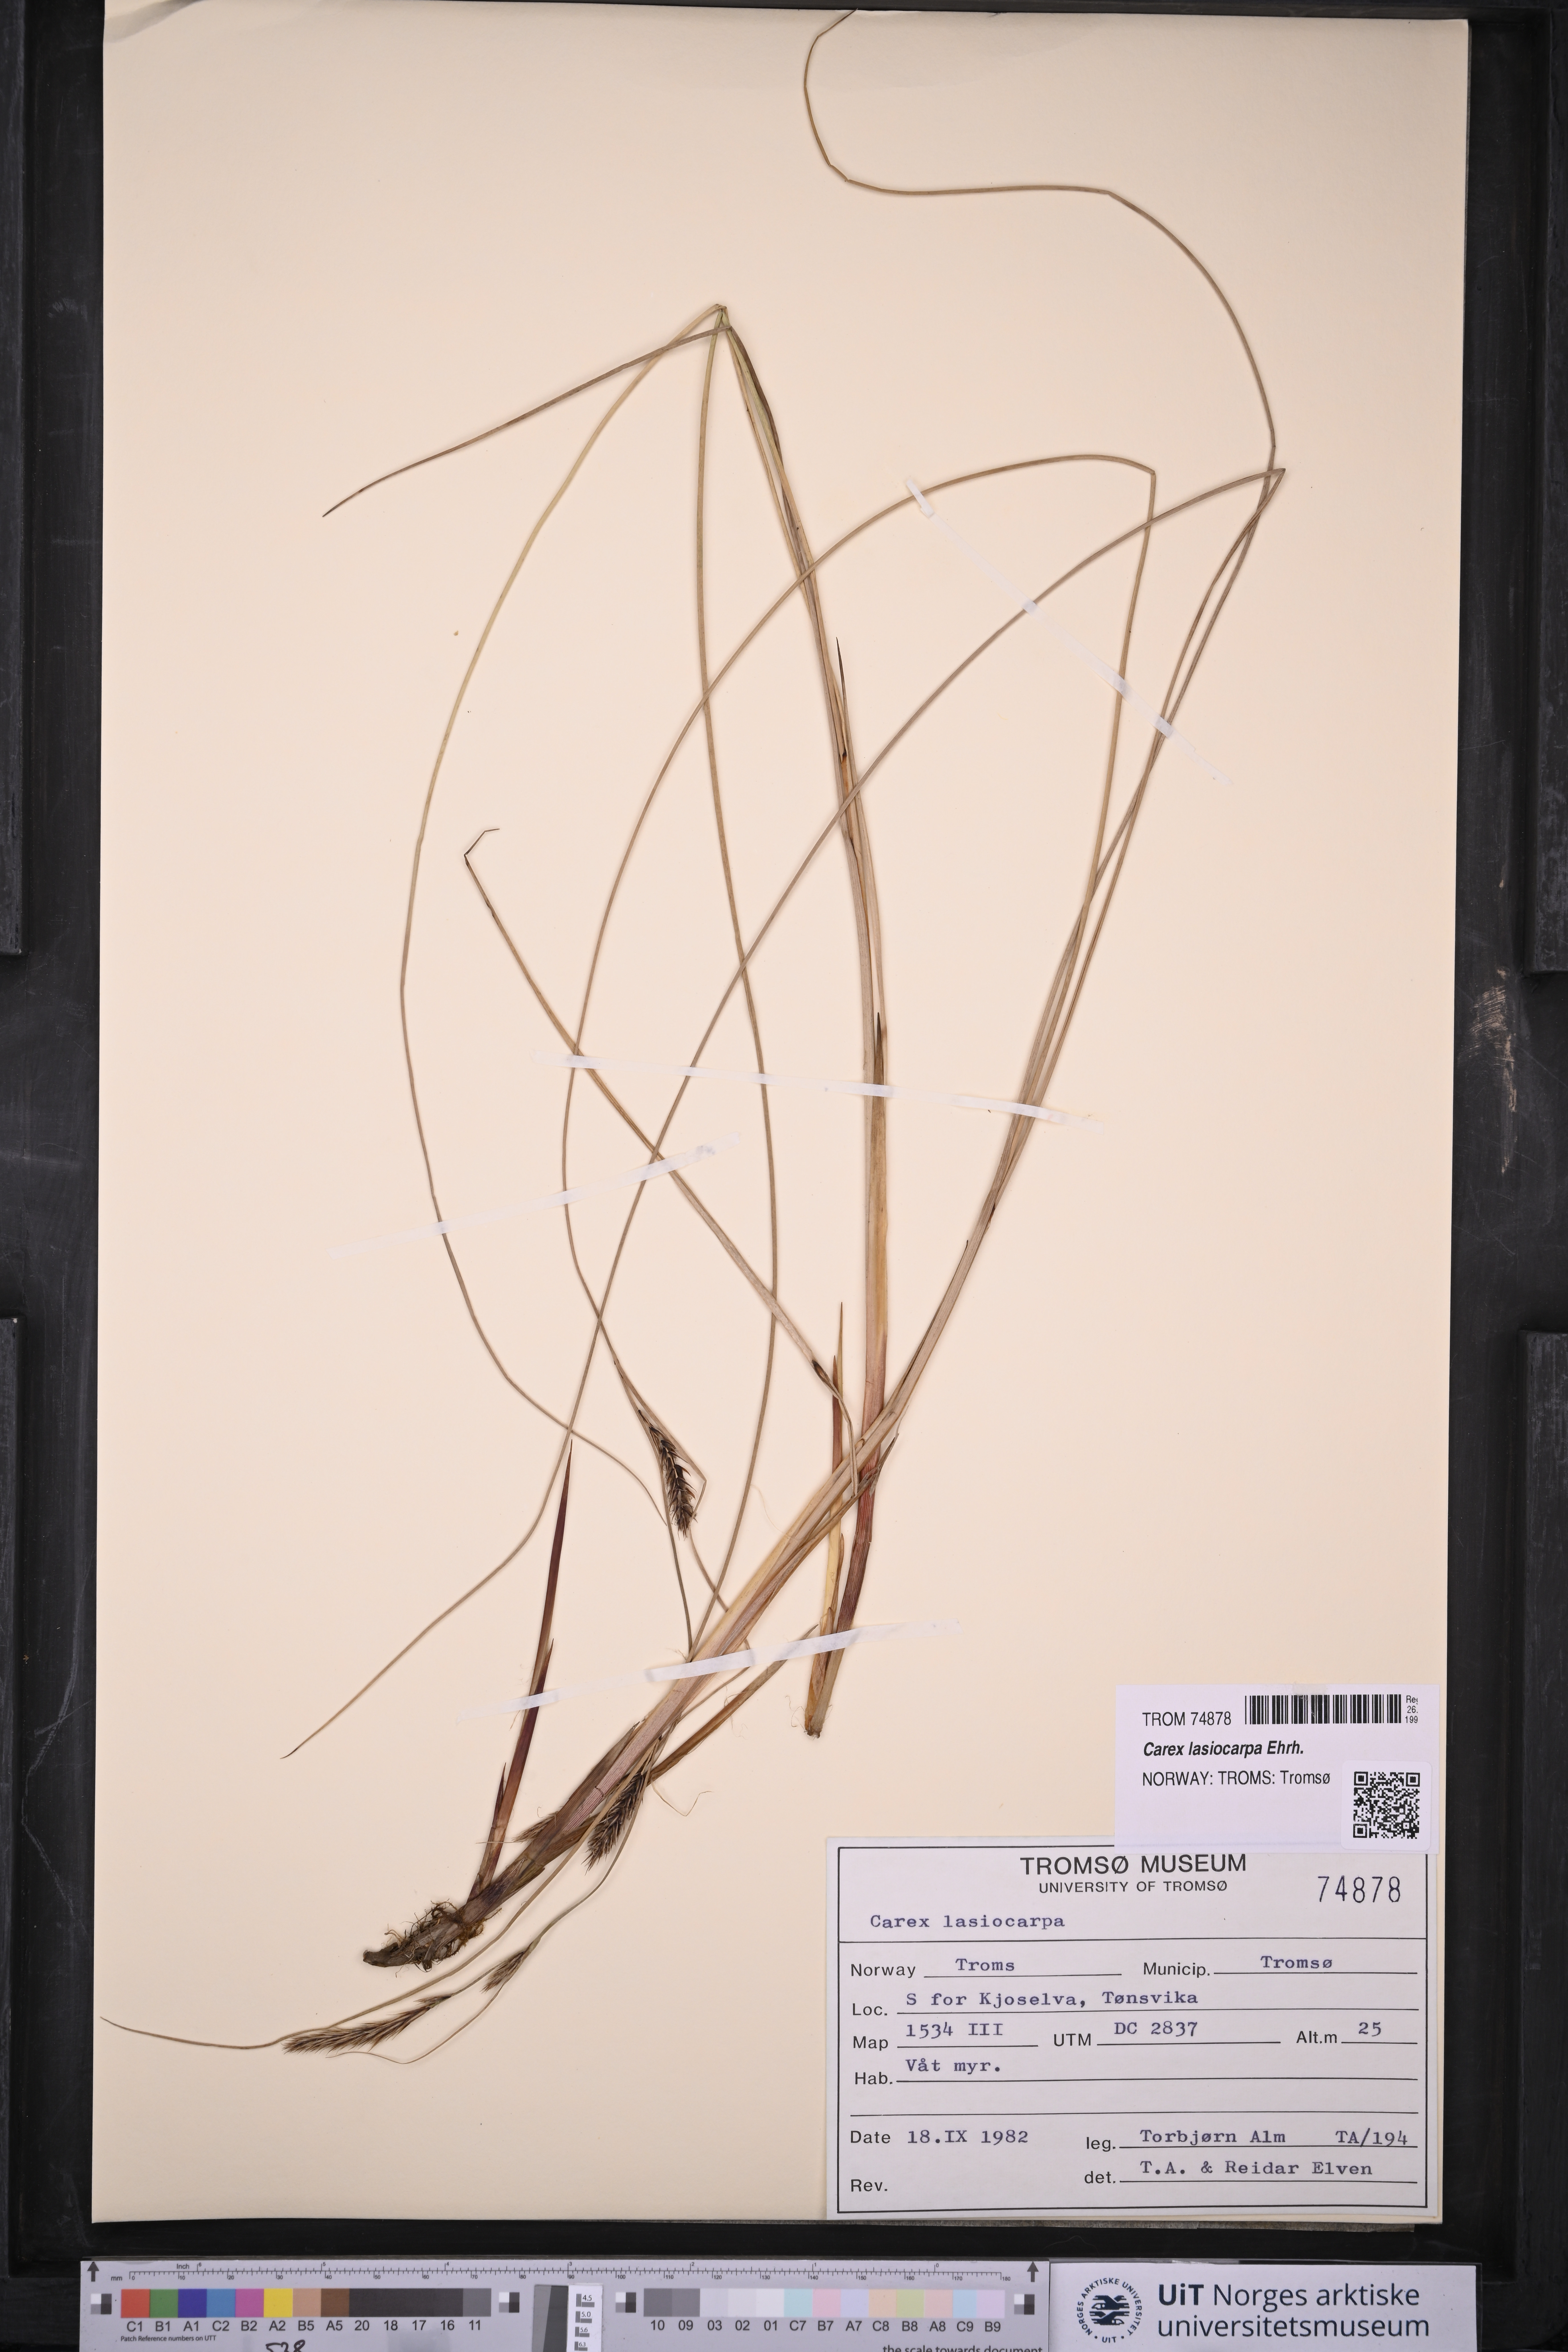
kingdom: Plantae
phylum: Tracheophyta
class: Liliopsida
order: Poales
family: Cyperaceae
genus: Carex
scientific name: Carex lasiocarpa
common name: Slender sedge
